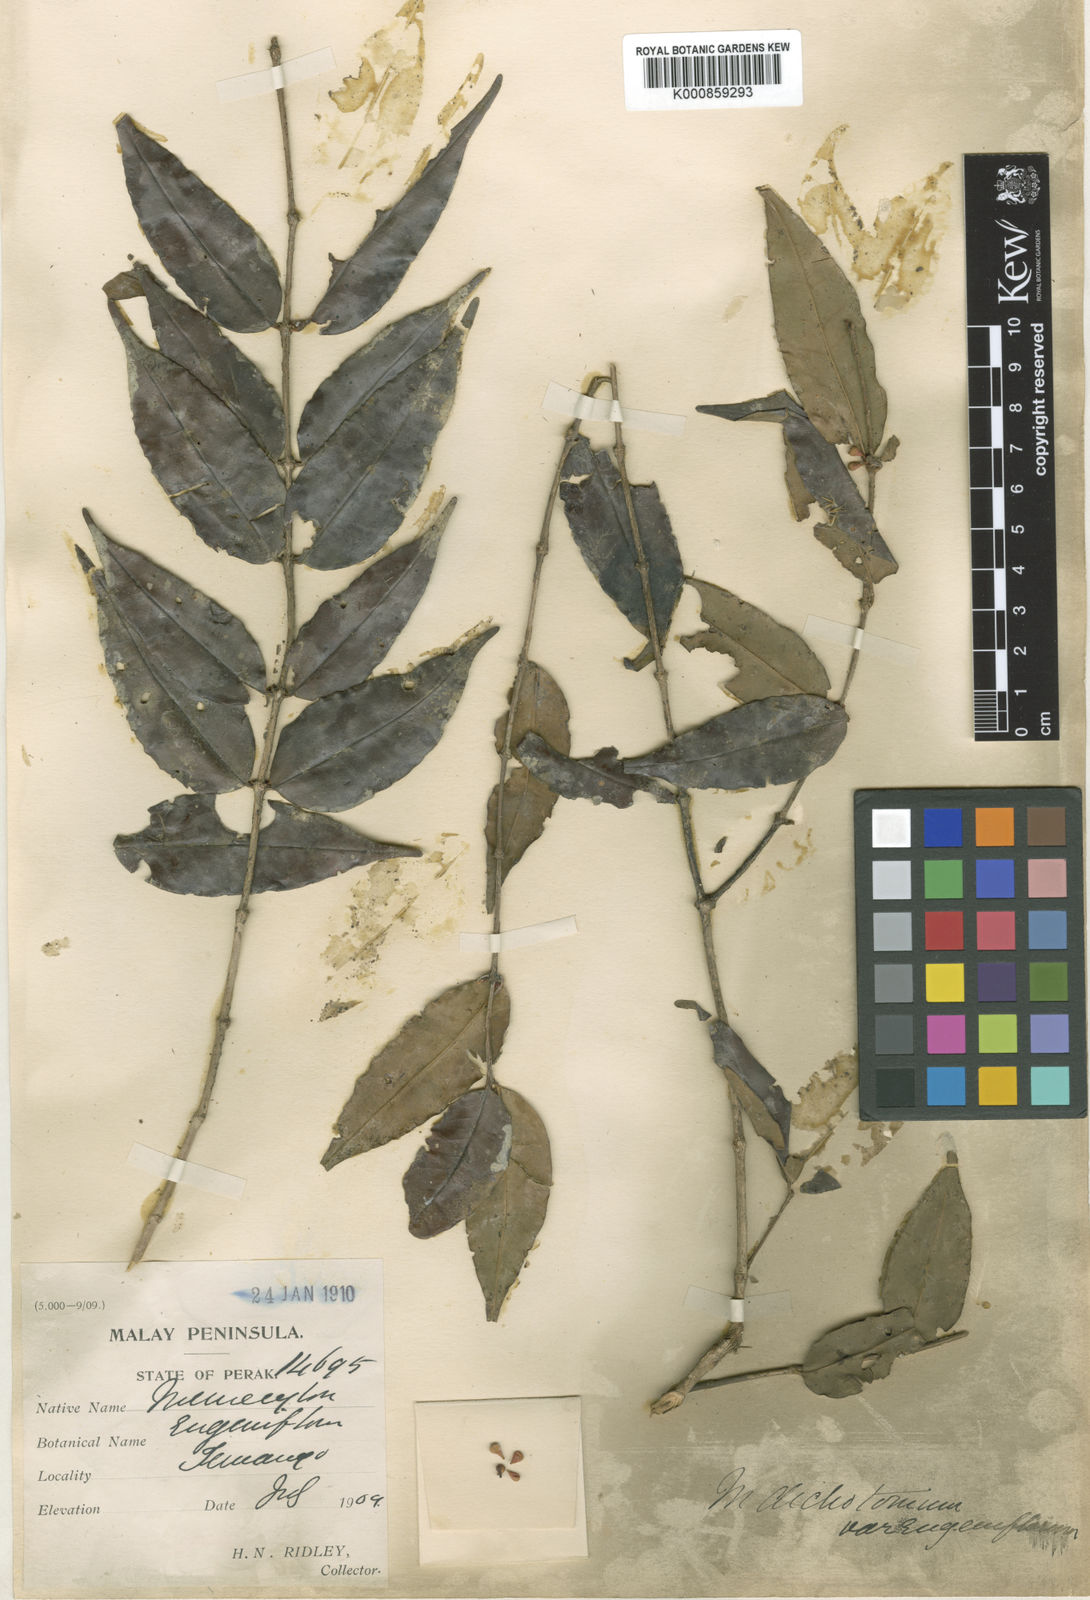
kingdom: Plantae
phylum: Tracheophyta
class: Magnoliopsida
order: Myrtales
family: Melastomataceae
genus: Memecylon
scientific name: Memecylon dichotomum
